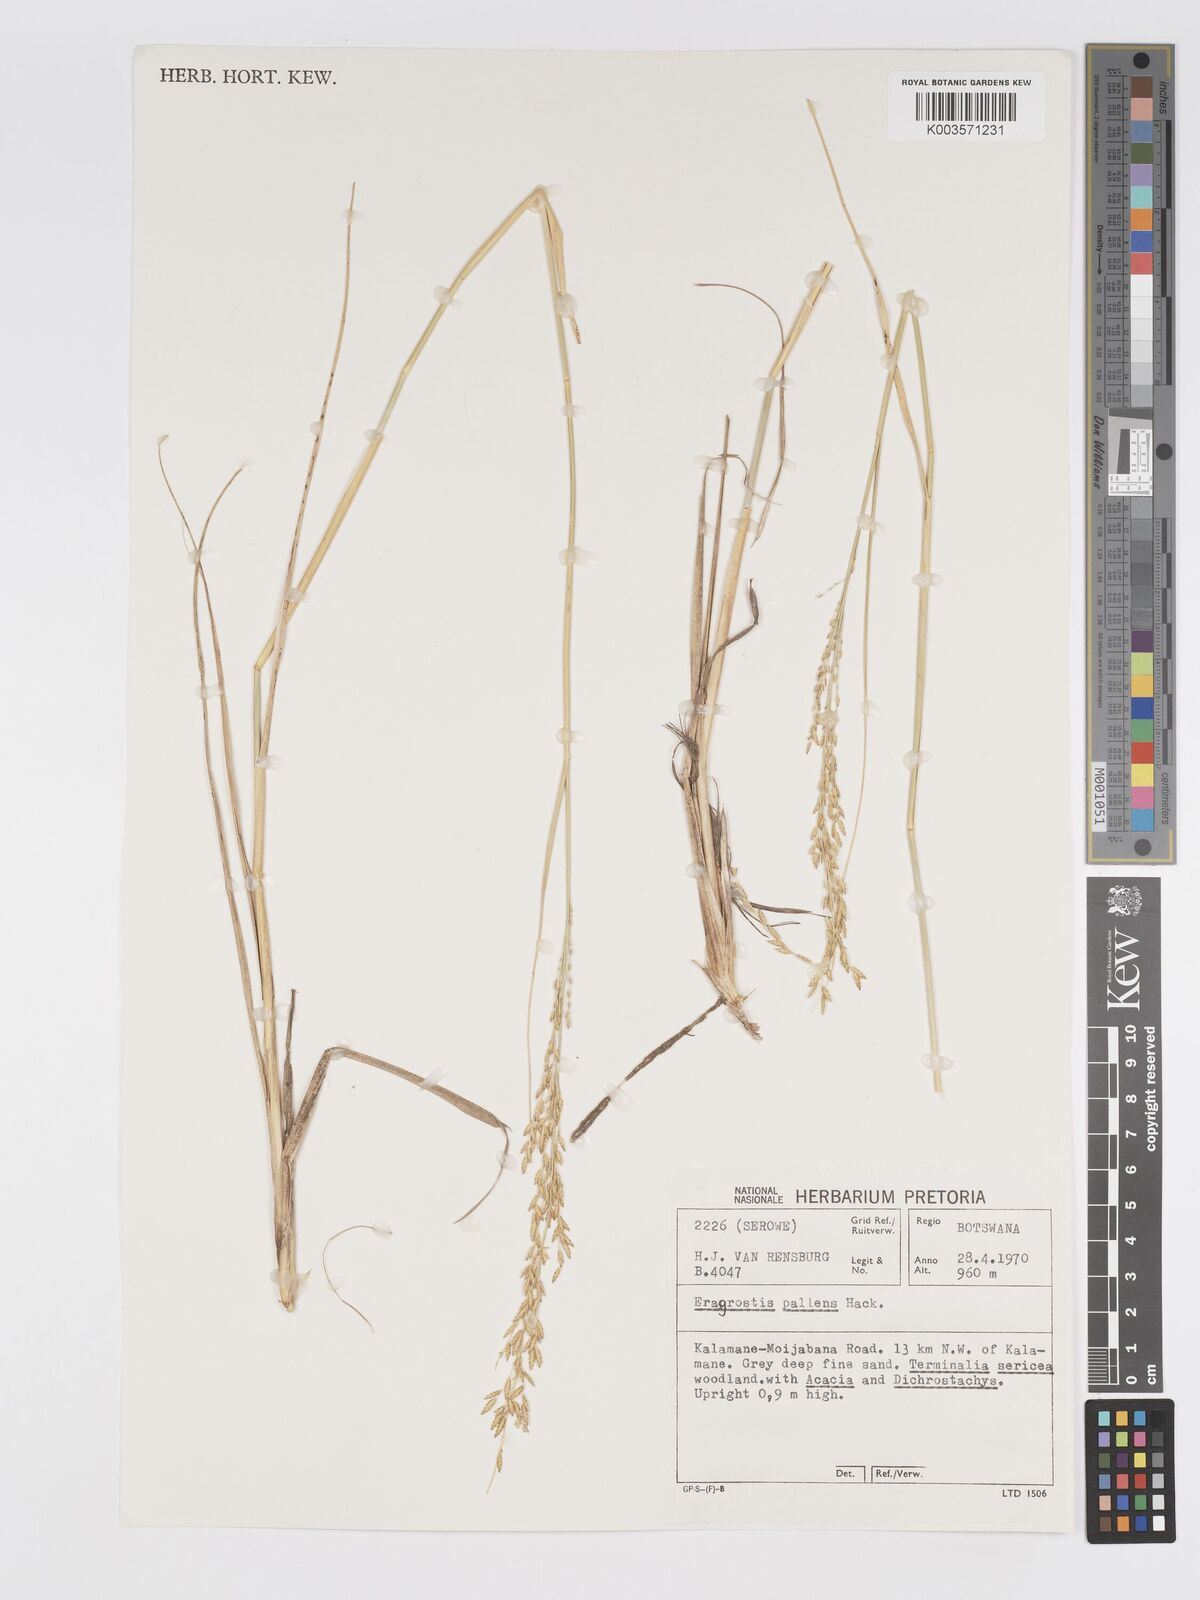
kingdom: Plantae
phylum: Tracheophyta
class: Liliopsida
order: Poales
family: Poaceae
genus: Eragrostis
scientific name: Eragrostis pallens
